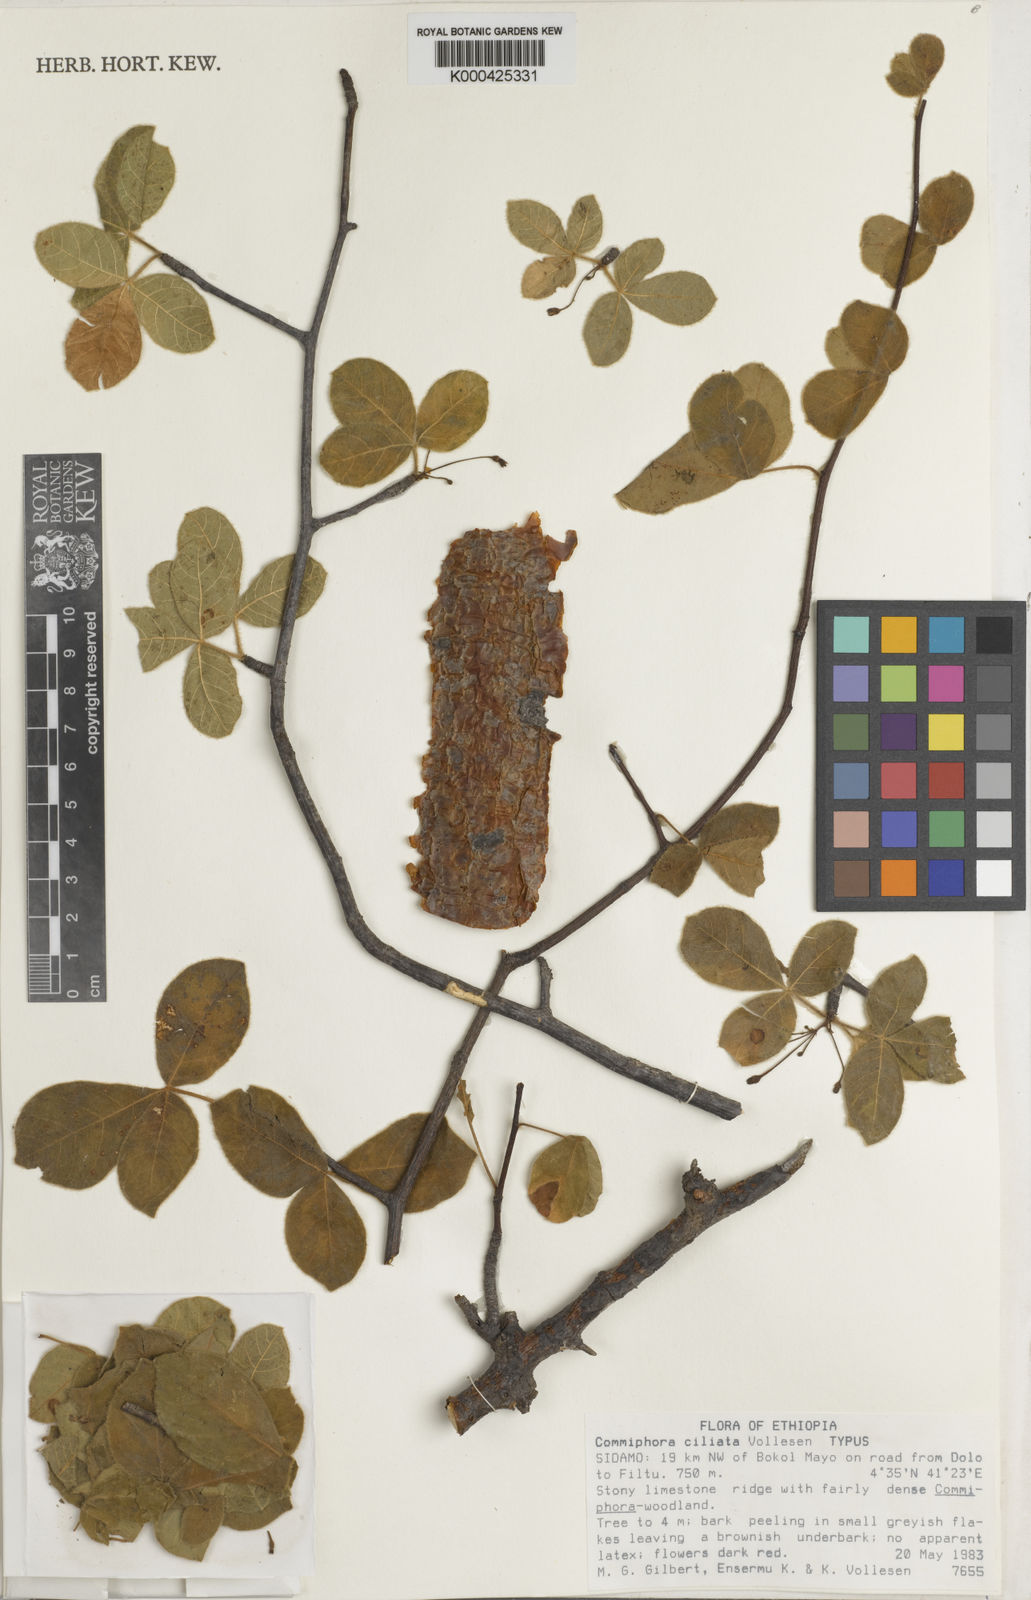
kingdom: Plantae
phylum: Tracheophyta
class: Magnoliopsida
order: Sapindales
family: Burseraceae
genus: Commiphora
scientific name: Commiphora ciliata
